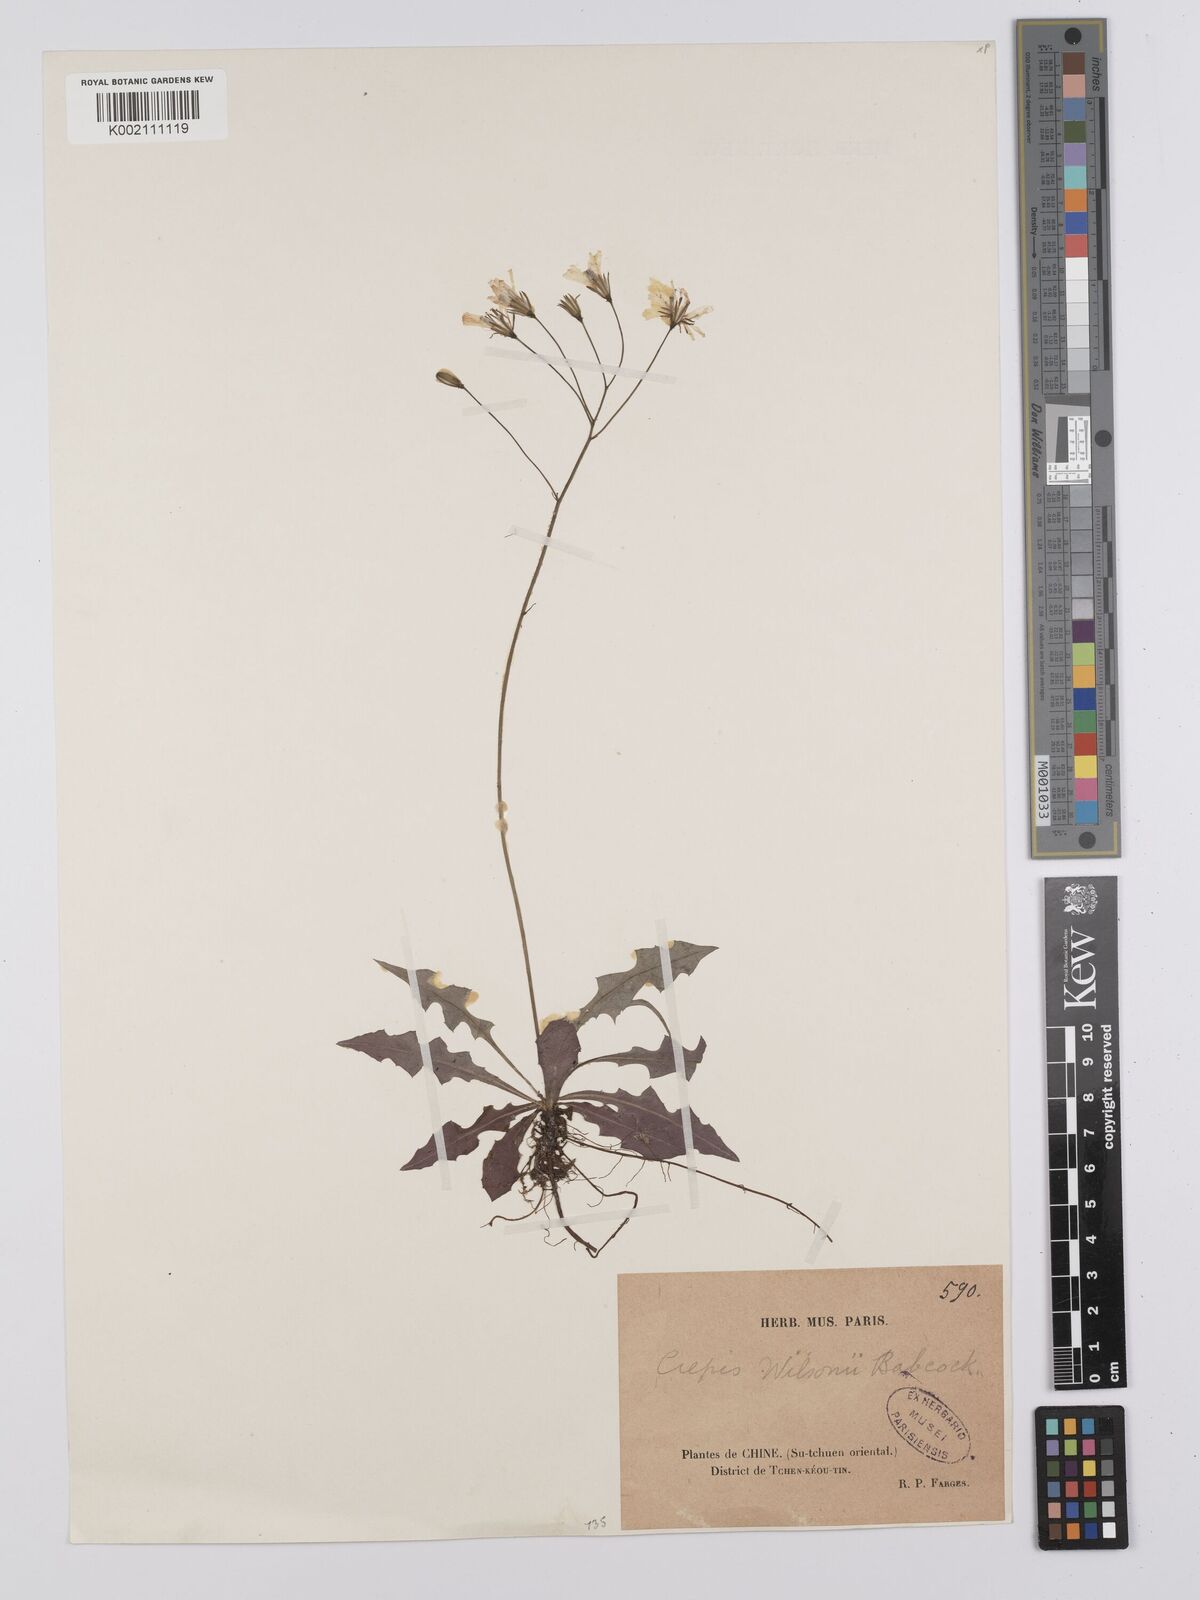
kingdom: Plantae
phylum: Tracheophyta
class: Magnoliopsida
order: Asterales
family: Asteraceae
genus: Youngia
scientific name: Youngia wilsonii
